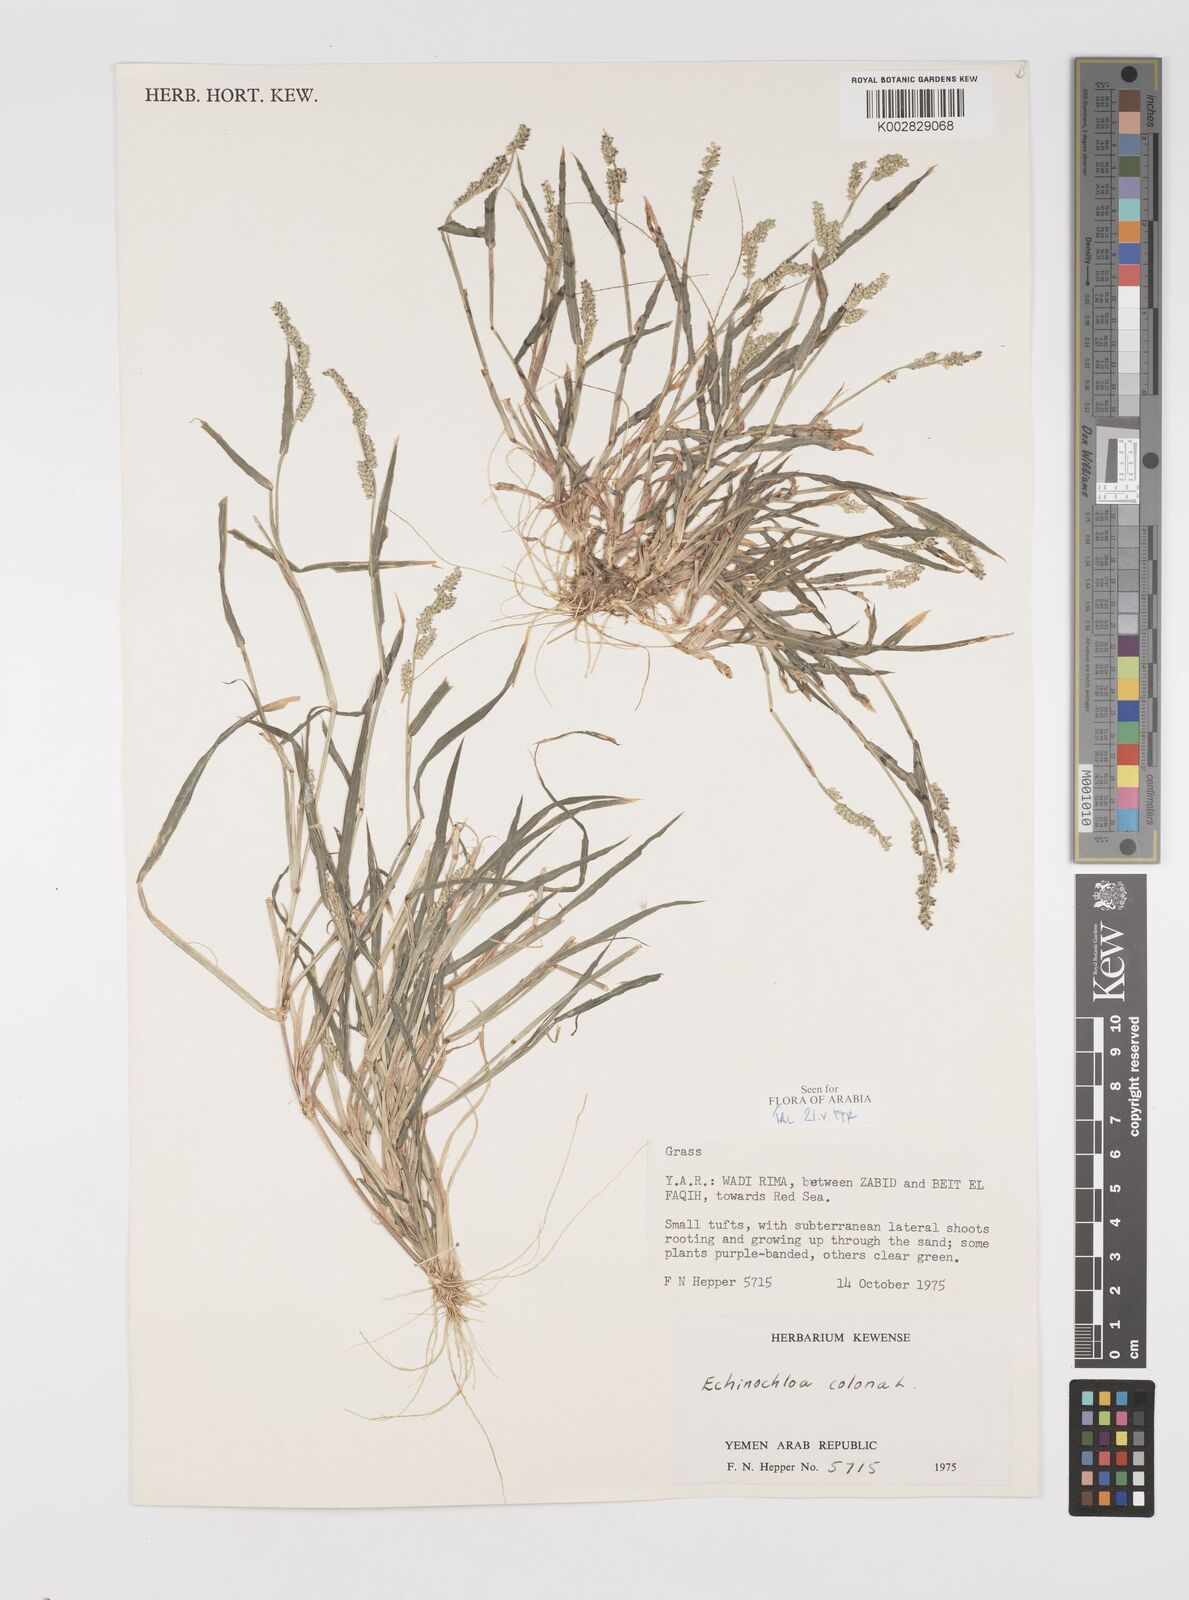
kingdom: Plantae
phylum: Tracheophyta
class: Liliopsida
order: Poales
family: Poaceae
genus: Echinochloa
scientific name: Echinochloa colonum
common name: Jungle rice
